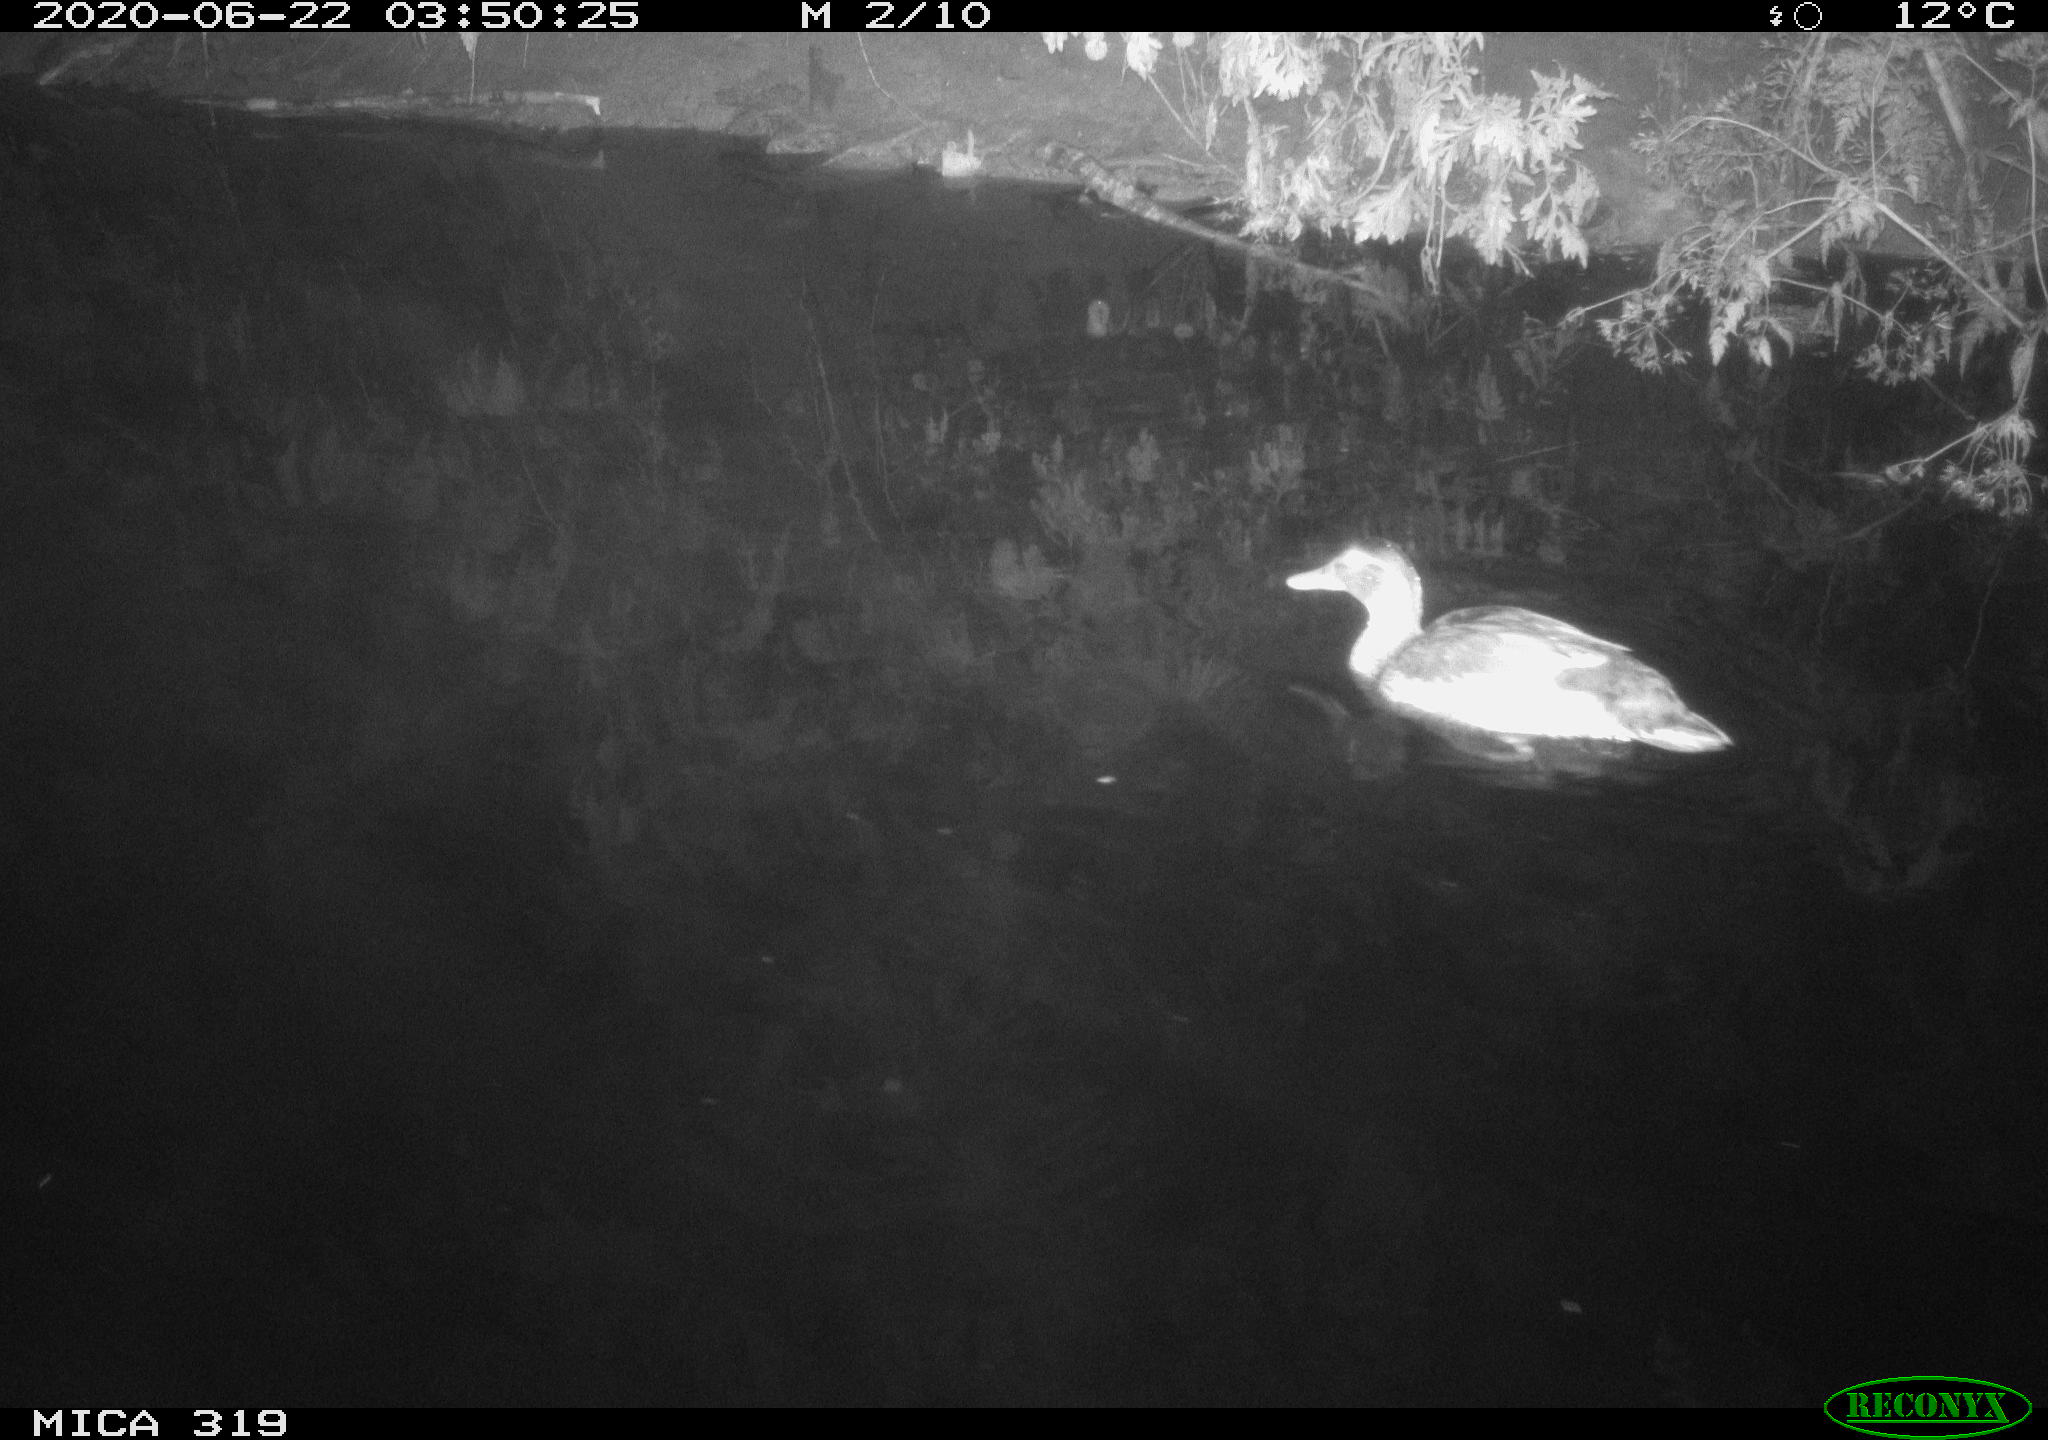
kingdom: Animalia
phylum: Chordata
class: Aves
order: Anseriformes
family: Anatidae
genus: Anas
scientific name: Anas platyrhynchos
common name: Mallard
